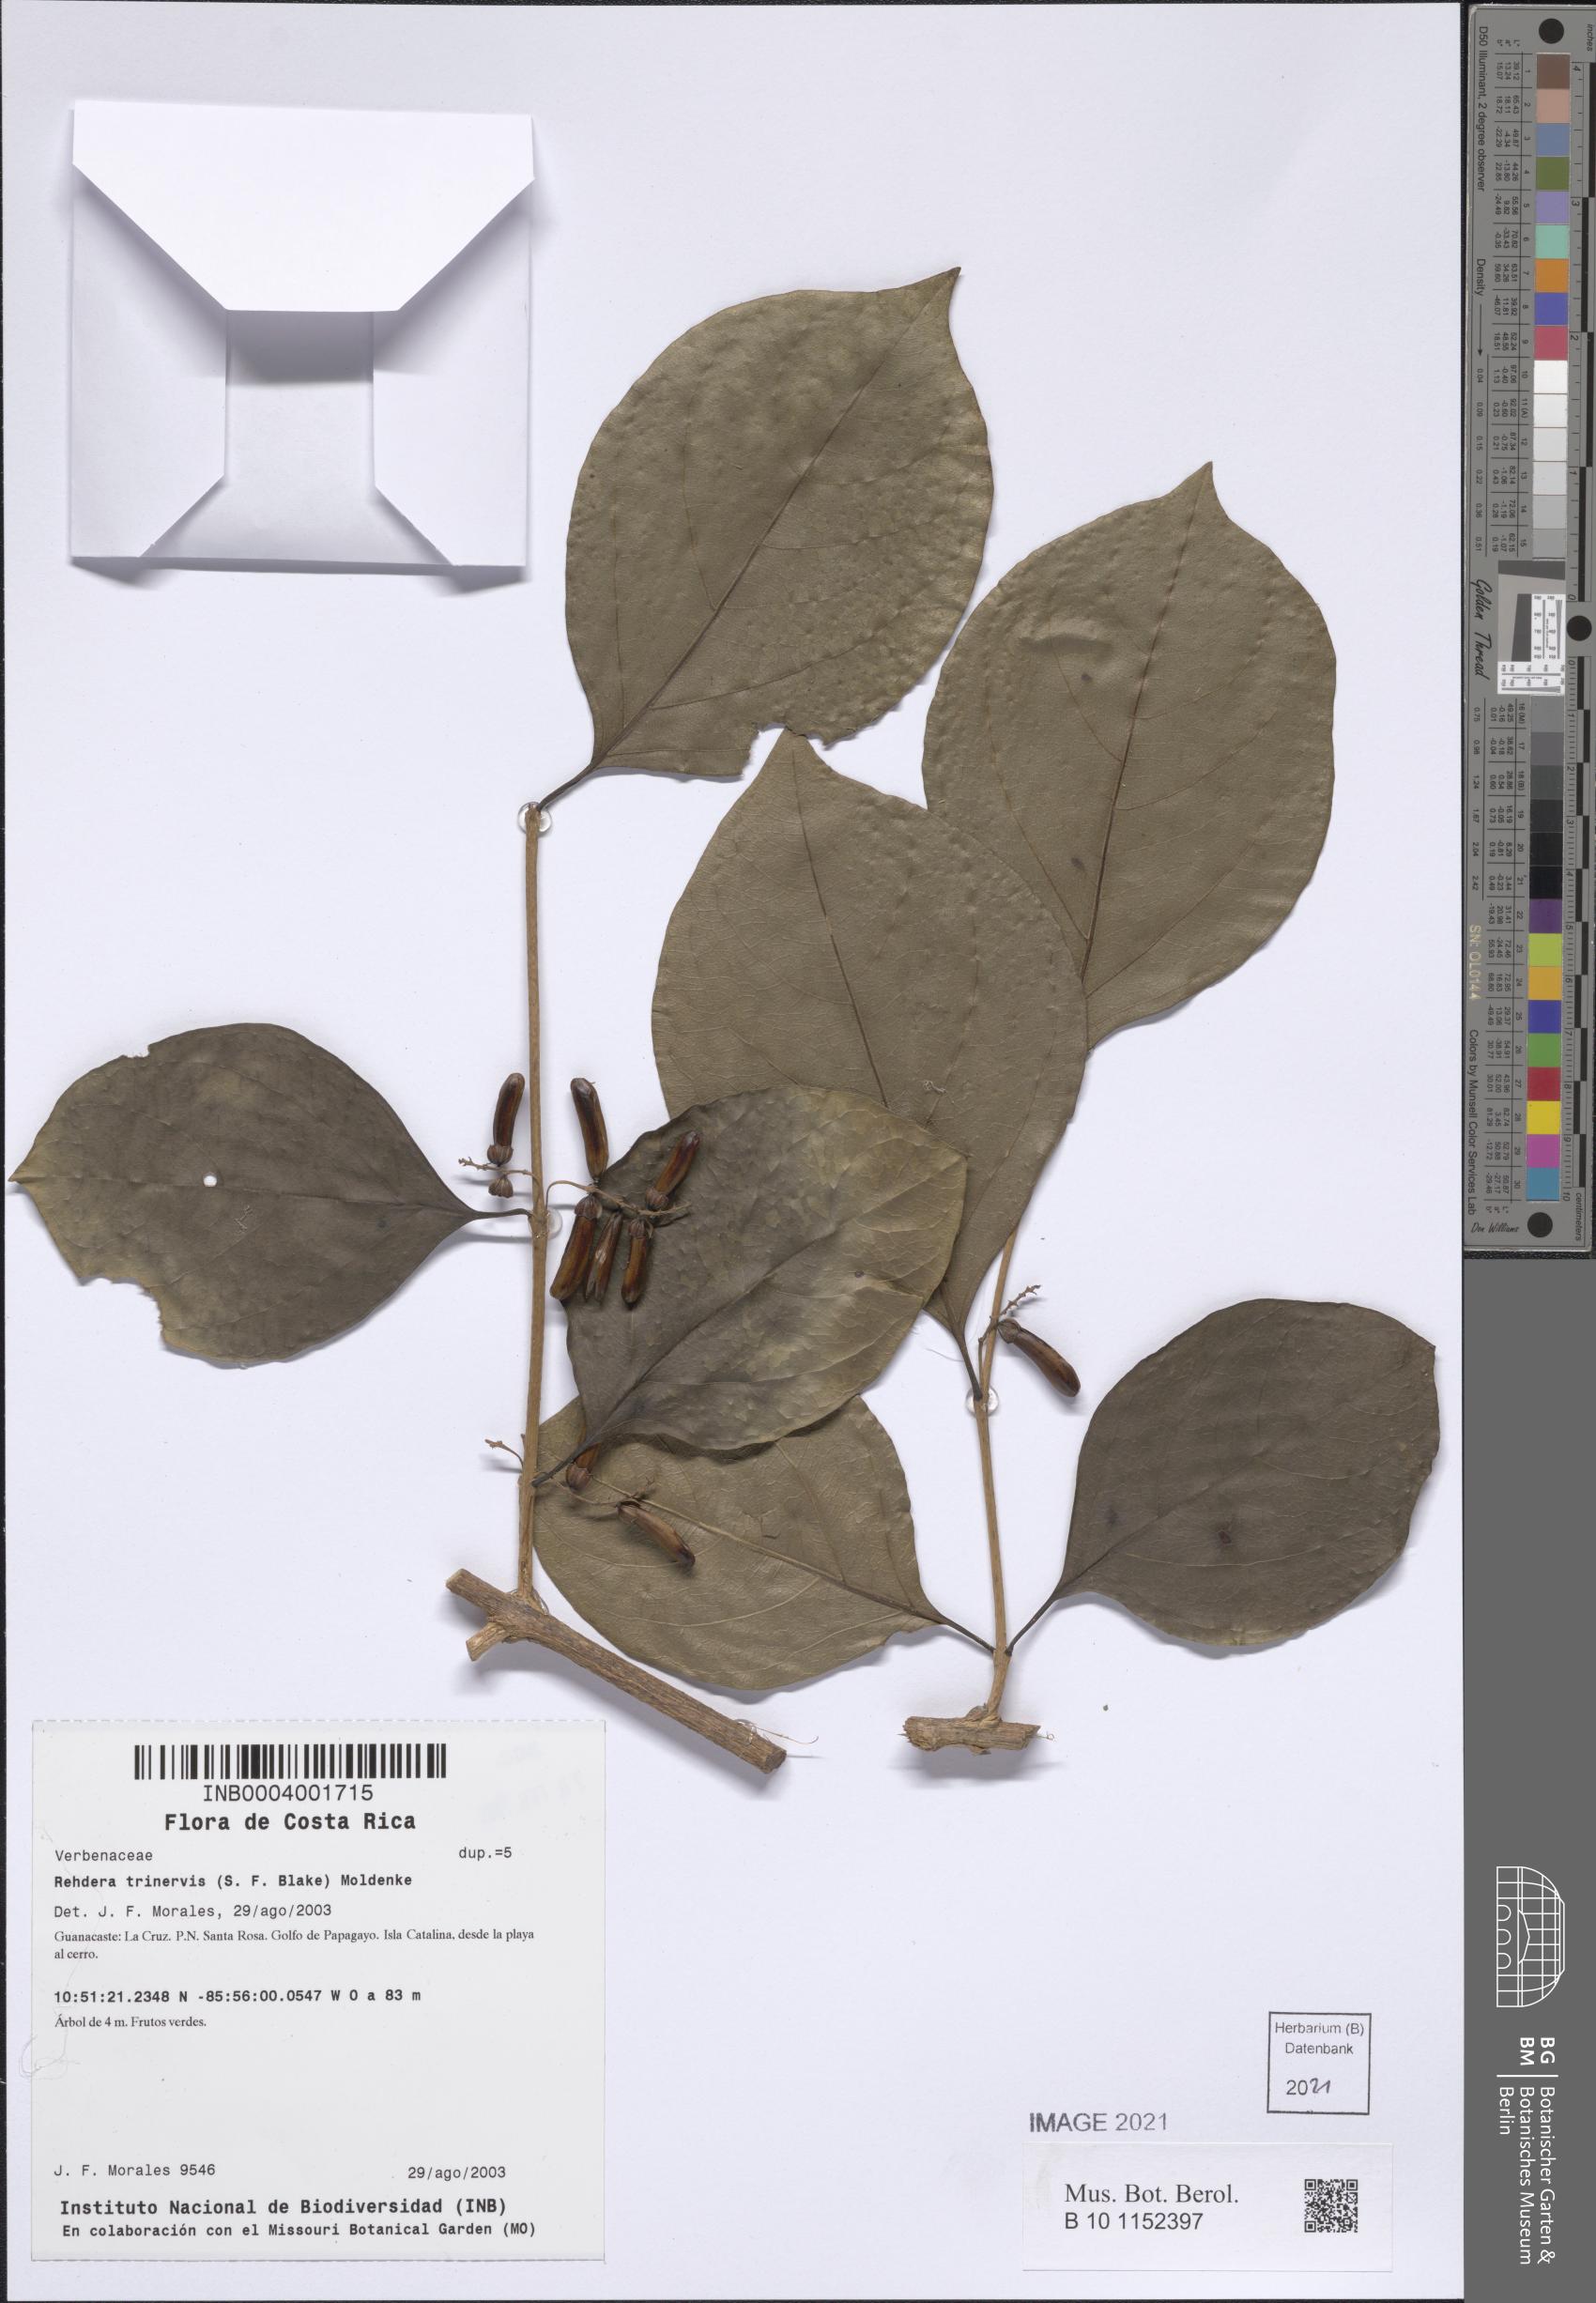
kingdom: Plantae
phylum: Tracheophyta
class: Magnoliopsida
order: Lamiales
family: Verbenaceae
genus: Rehdera
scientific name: Rehdera trinervis
